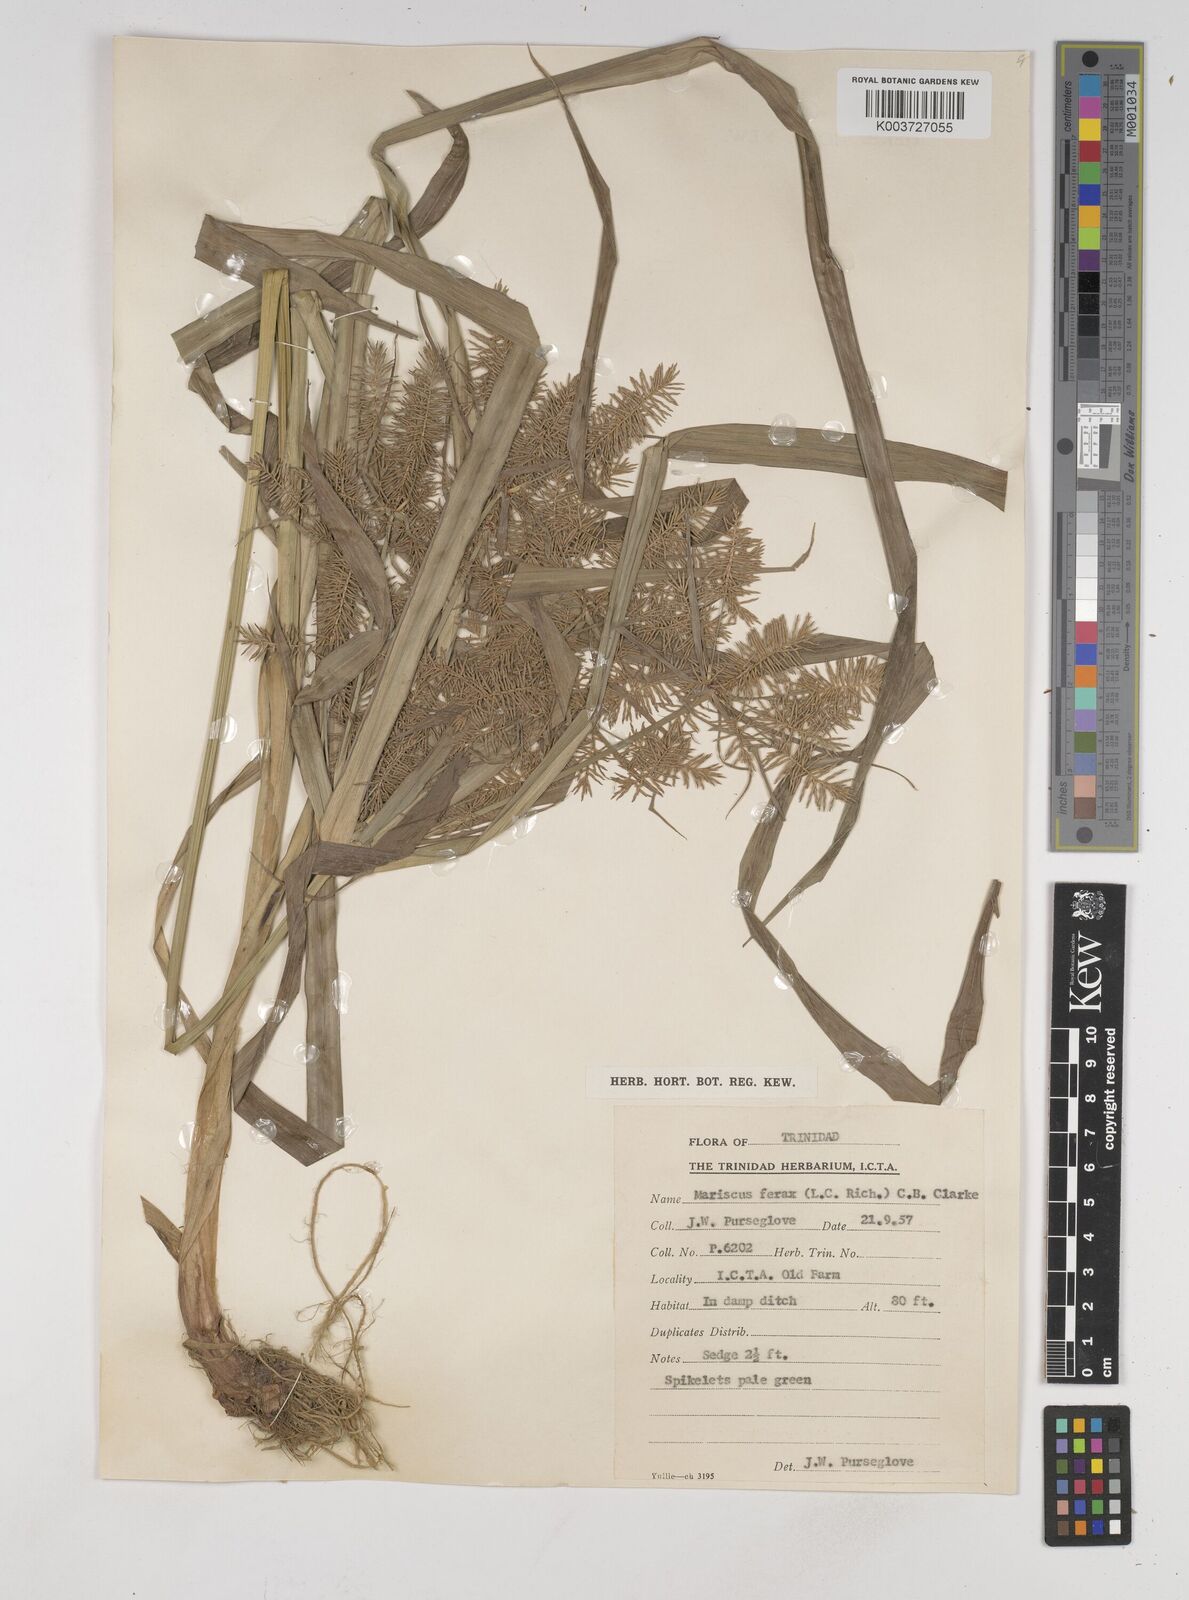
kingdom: Plantae
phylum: Tracheophyta
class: Liliopsida
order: Poales
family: Cyperaceae
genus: Cyperus
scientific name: Cyperus odoratus
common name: Fragrant flatsedge
